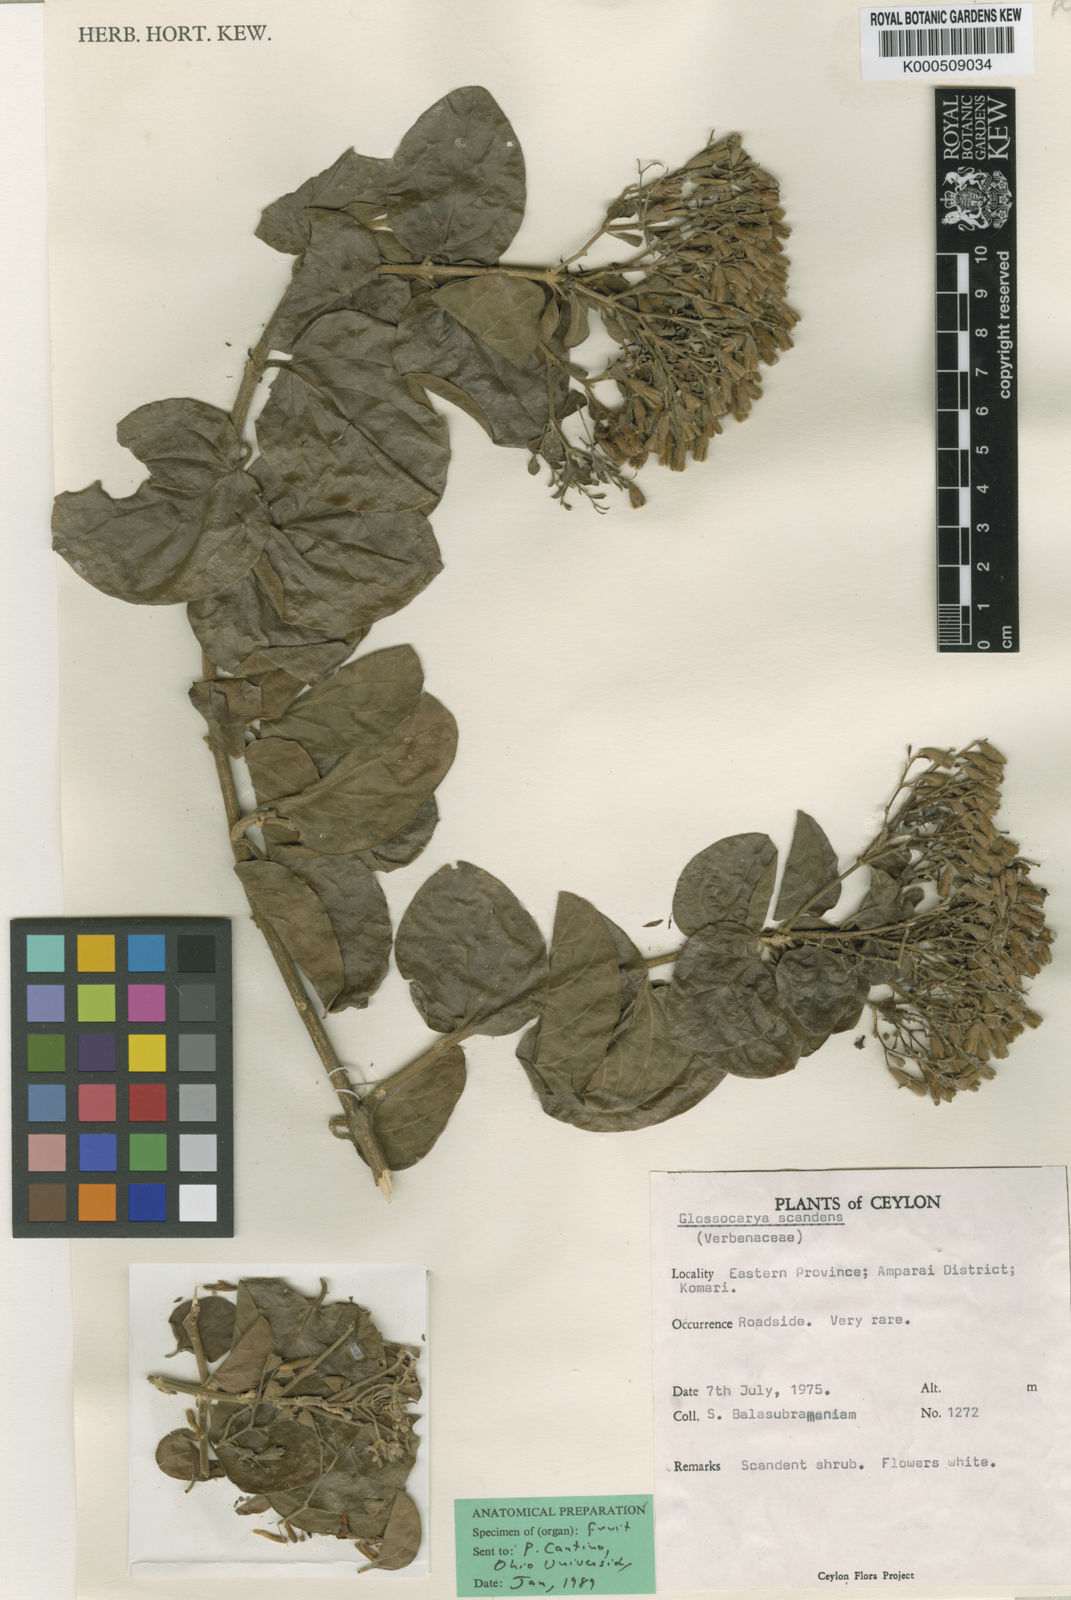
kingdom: Plantae
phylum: Tracheophyta
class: Magnoliopsida
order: Lamiales
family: Lamiaceae
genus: Glossocarya
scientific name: Glossocarya scandens
